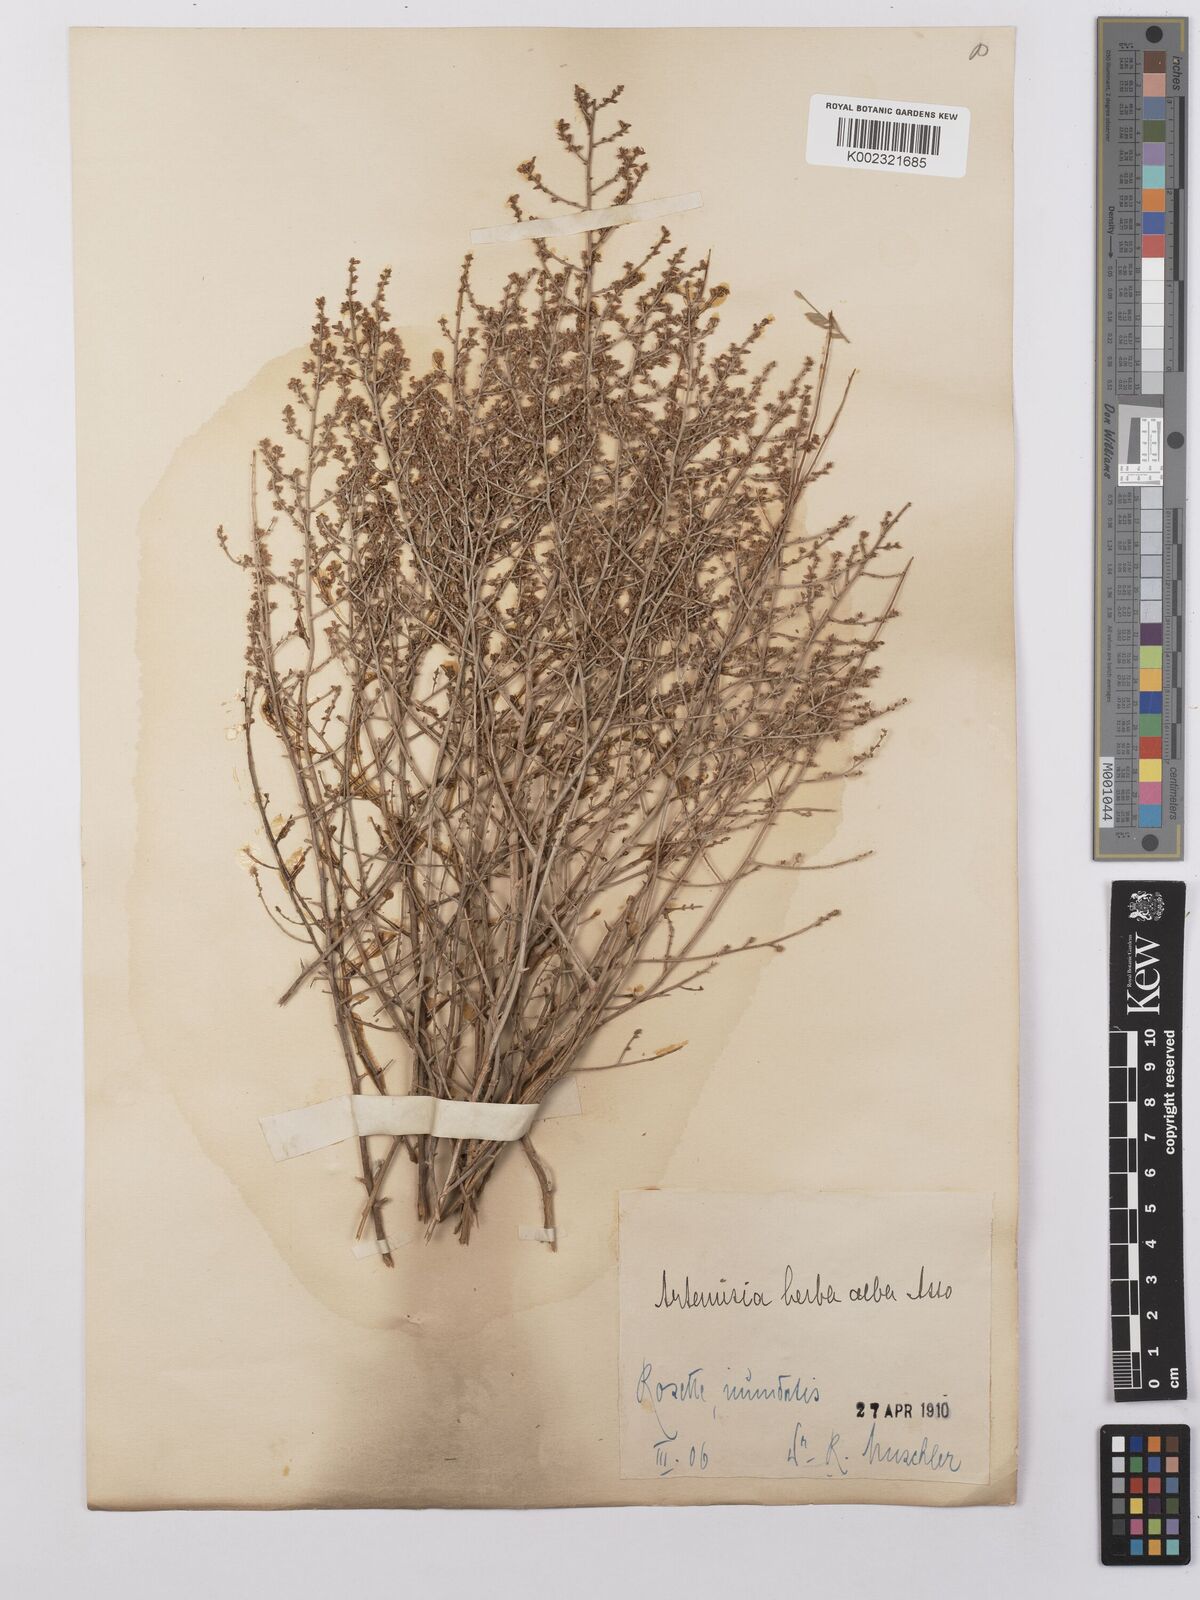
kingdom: Plantae
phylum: Tracheophyta
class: Magnoliopsida
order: Asterales
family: Asteraceae
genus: Artemisia
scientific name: Artemisia herba-alba
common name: White wormwood
